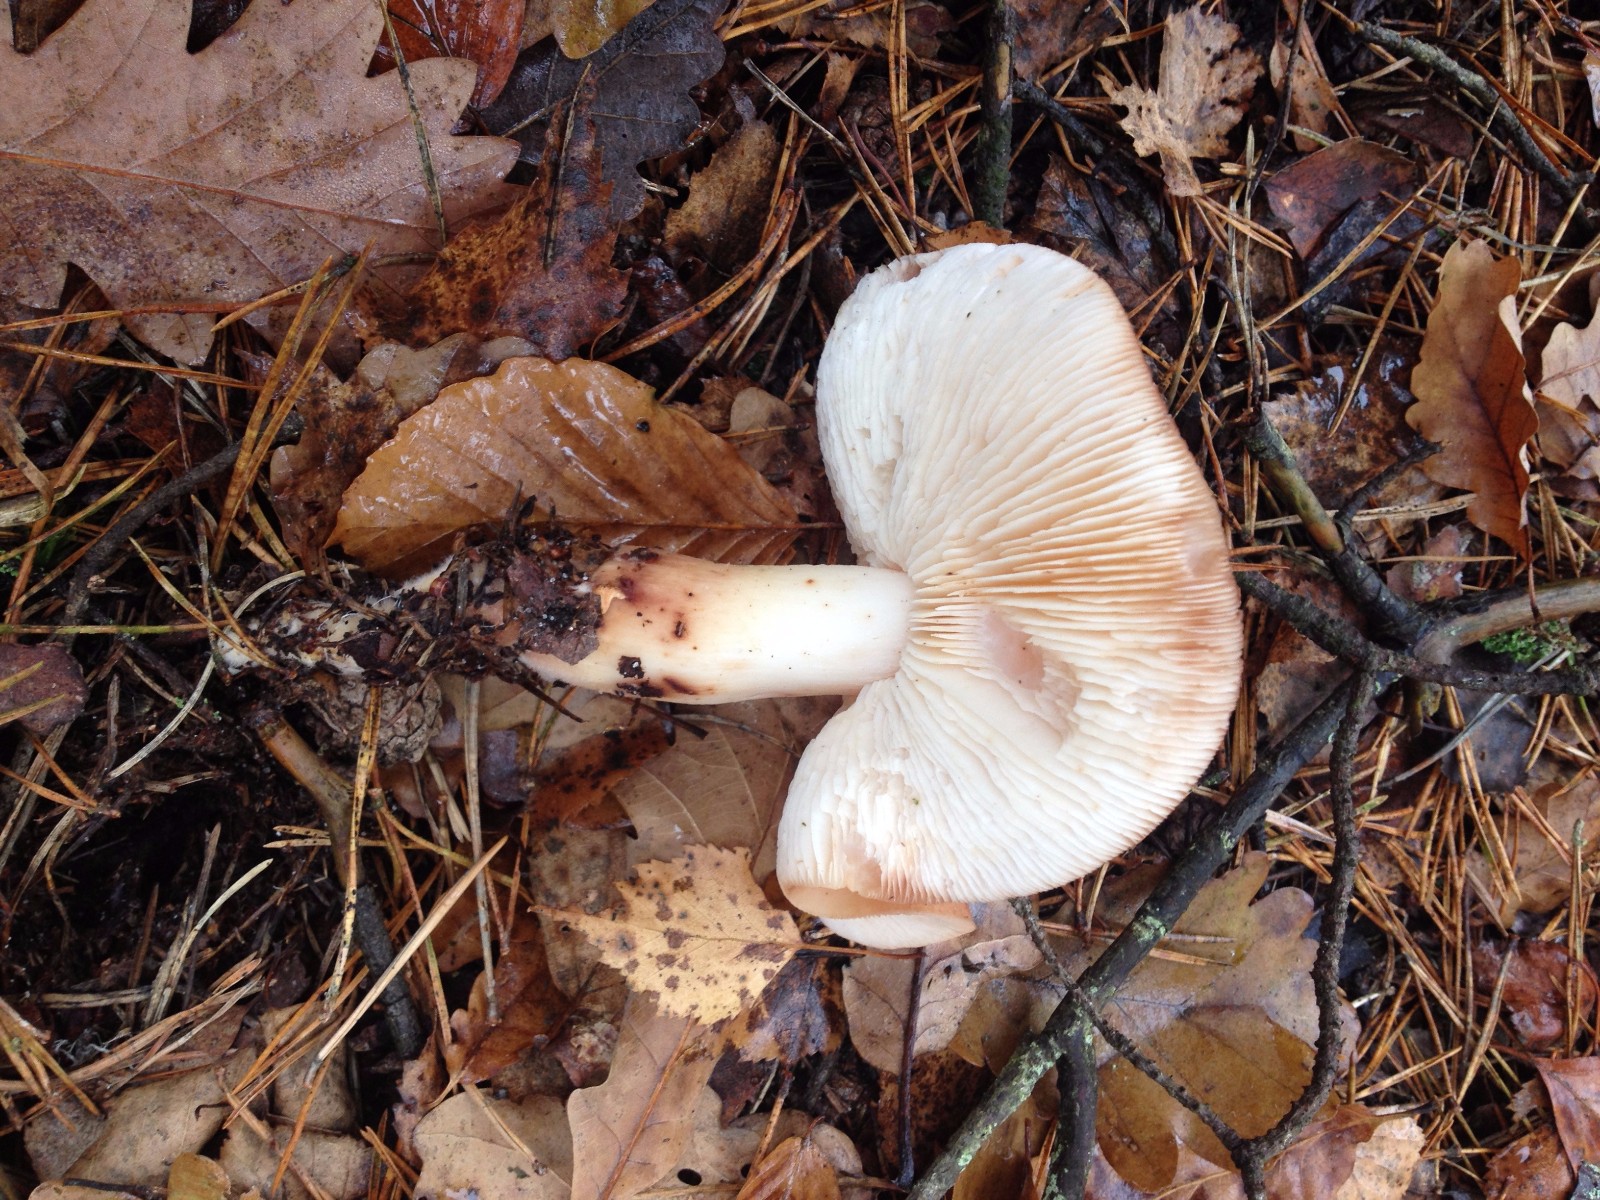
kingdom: Fungi
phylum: Basidiomycota
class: Agaricomycetes
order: Agaricales
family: Omphalotaceae
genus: Rhodocollybia
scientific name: Rhodocollybia maculata
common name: plettet fladhat
